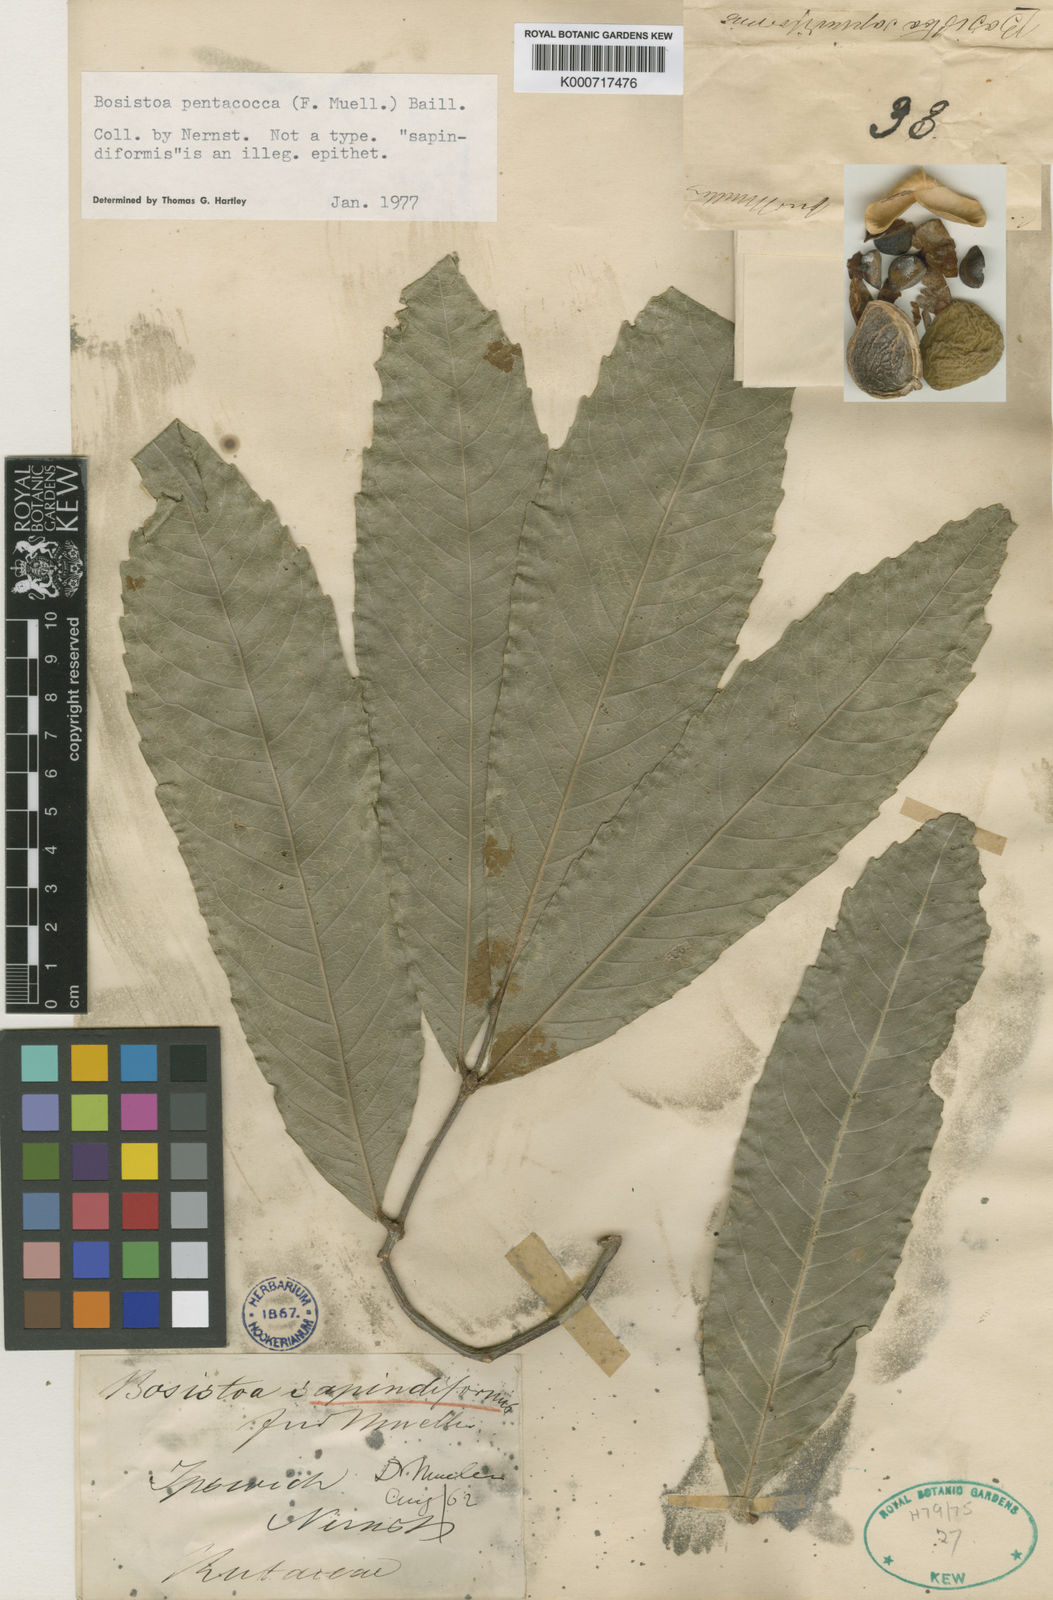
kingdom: Plantae
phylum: Tracheophyta
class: Magnoliopsida
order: Sapindales
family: Rutaceae
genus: Bosistoa
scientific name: Bosistoa pentacocca
